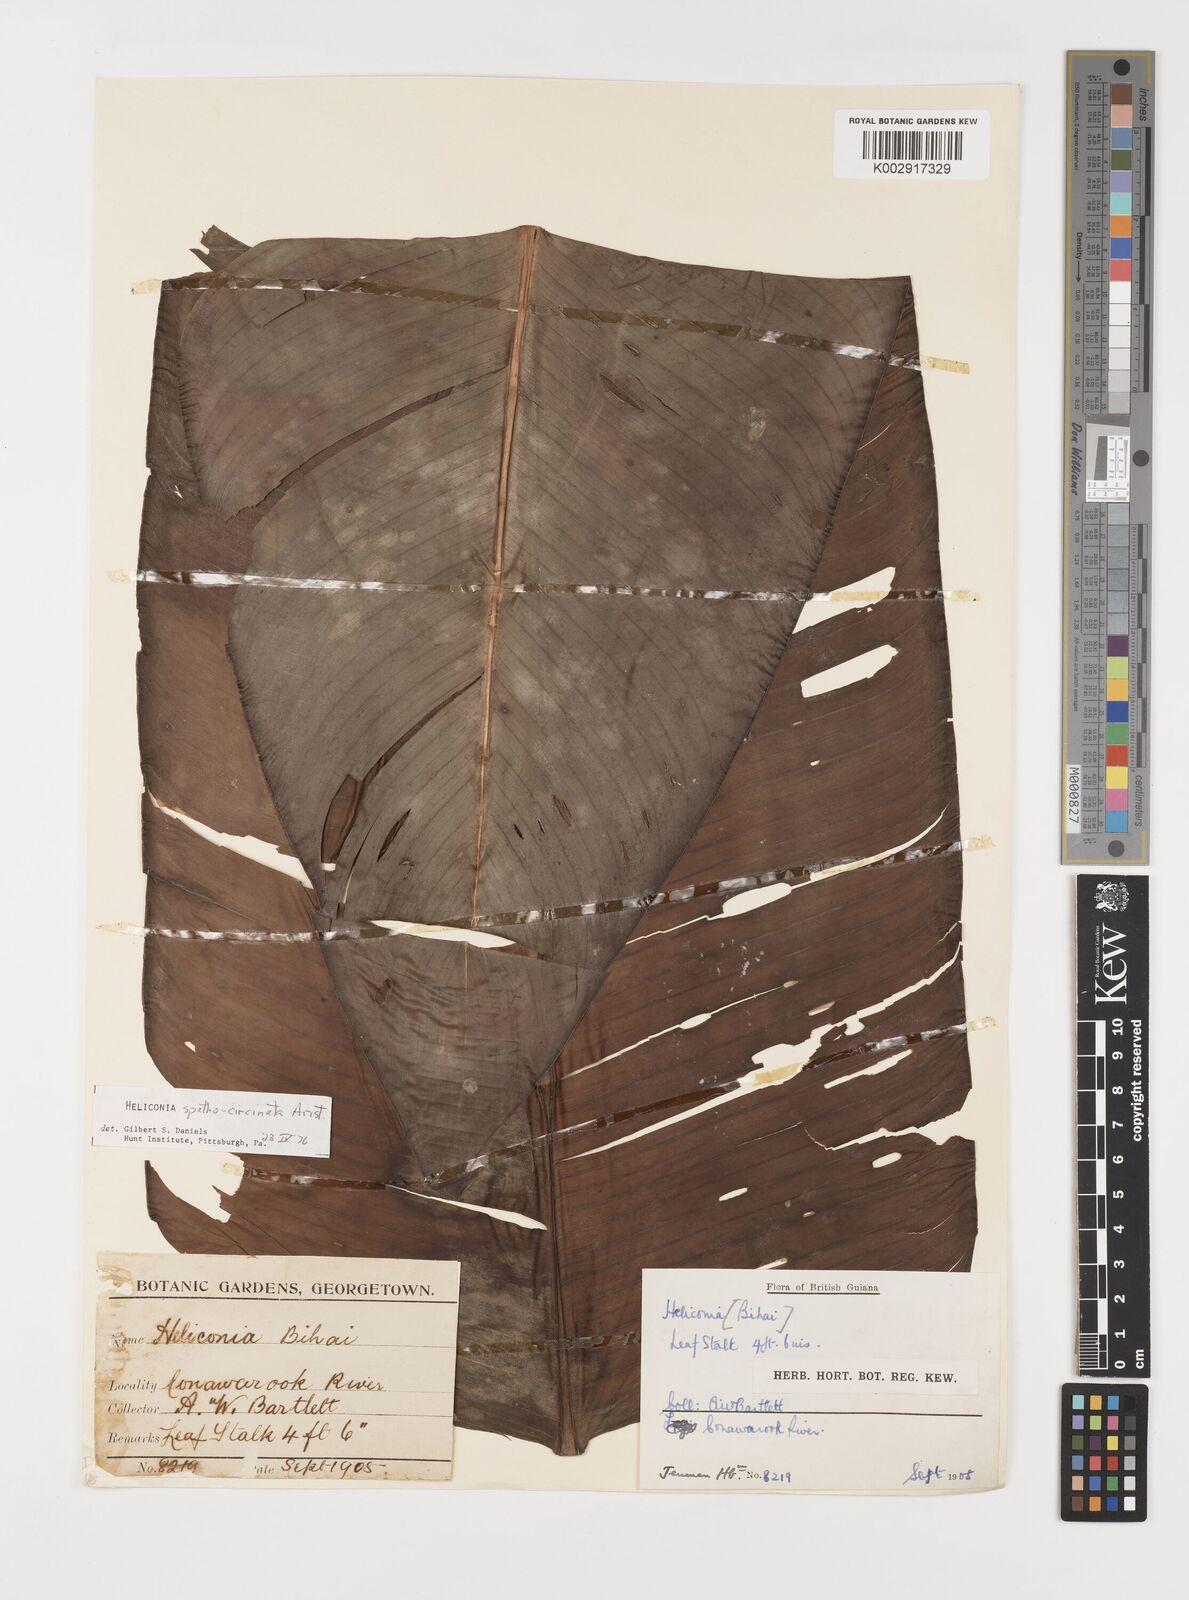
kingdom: Plantae
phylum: Tracheophyta
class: Liliopsida
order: Zingiberales
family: Heliconiaceae
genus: Heliconia
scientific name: Heliconia spathocircinata
